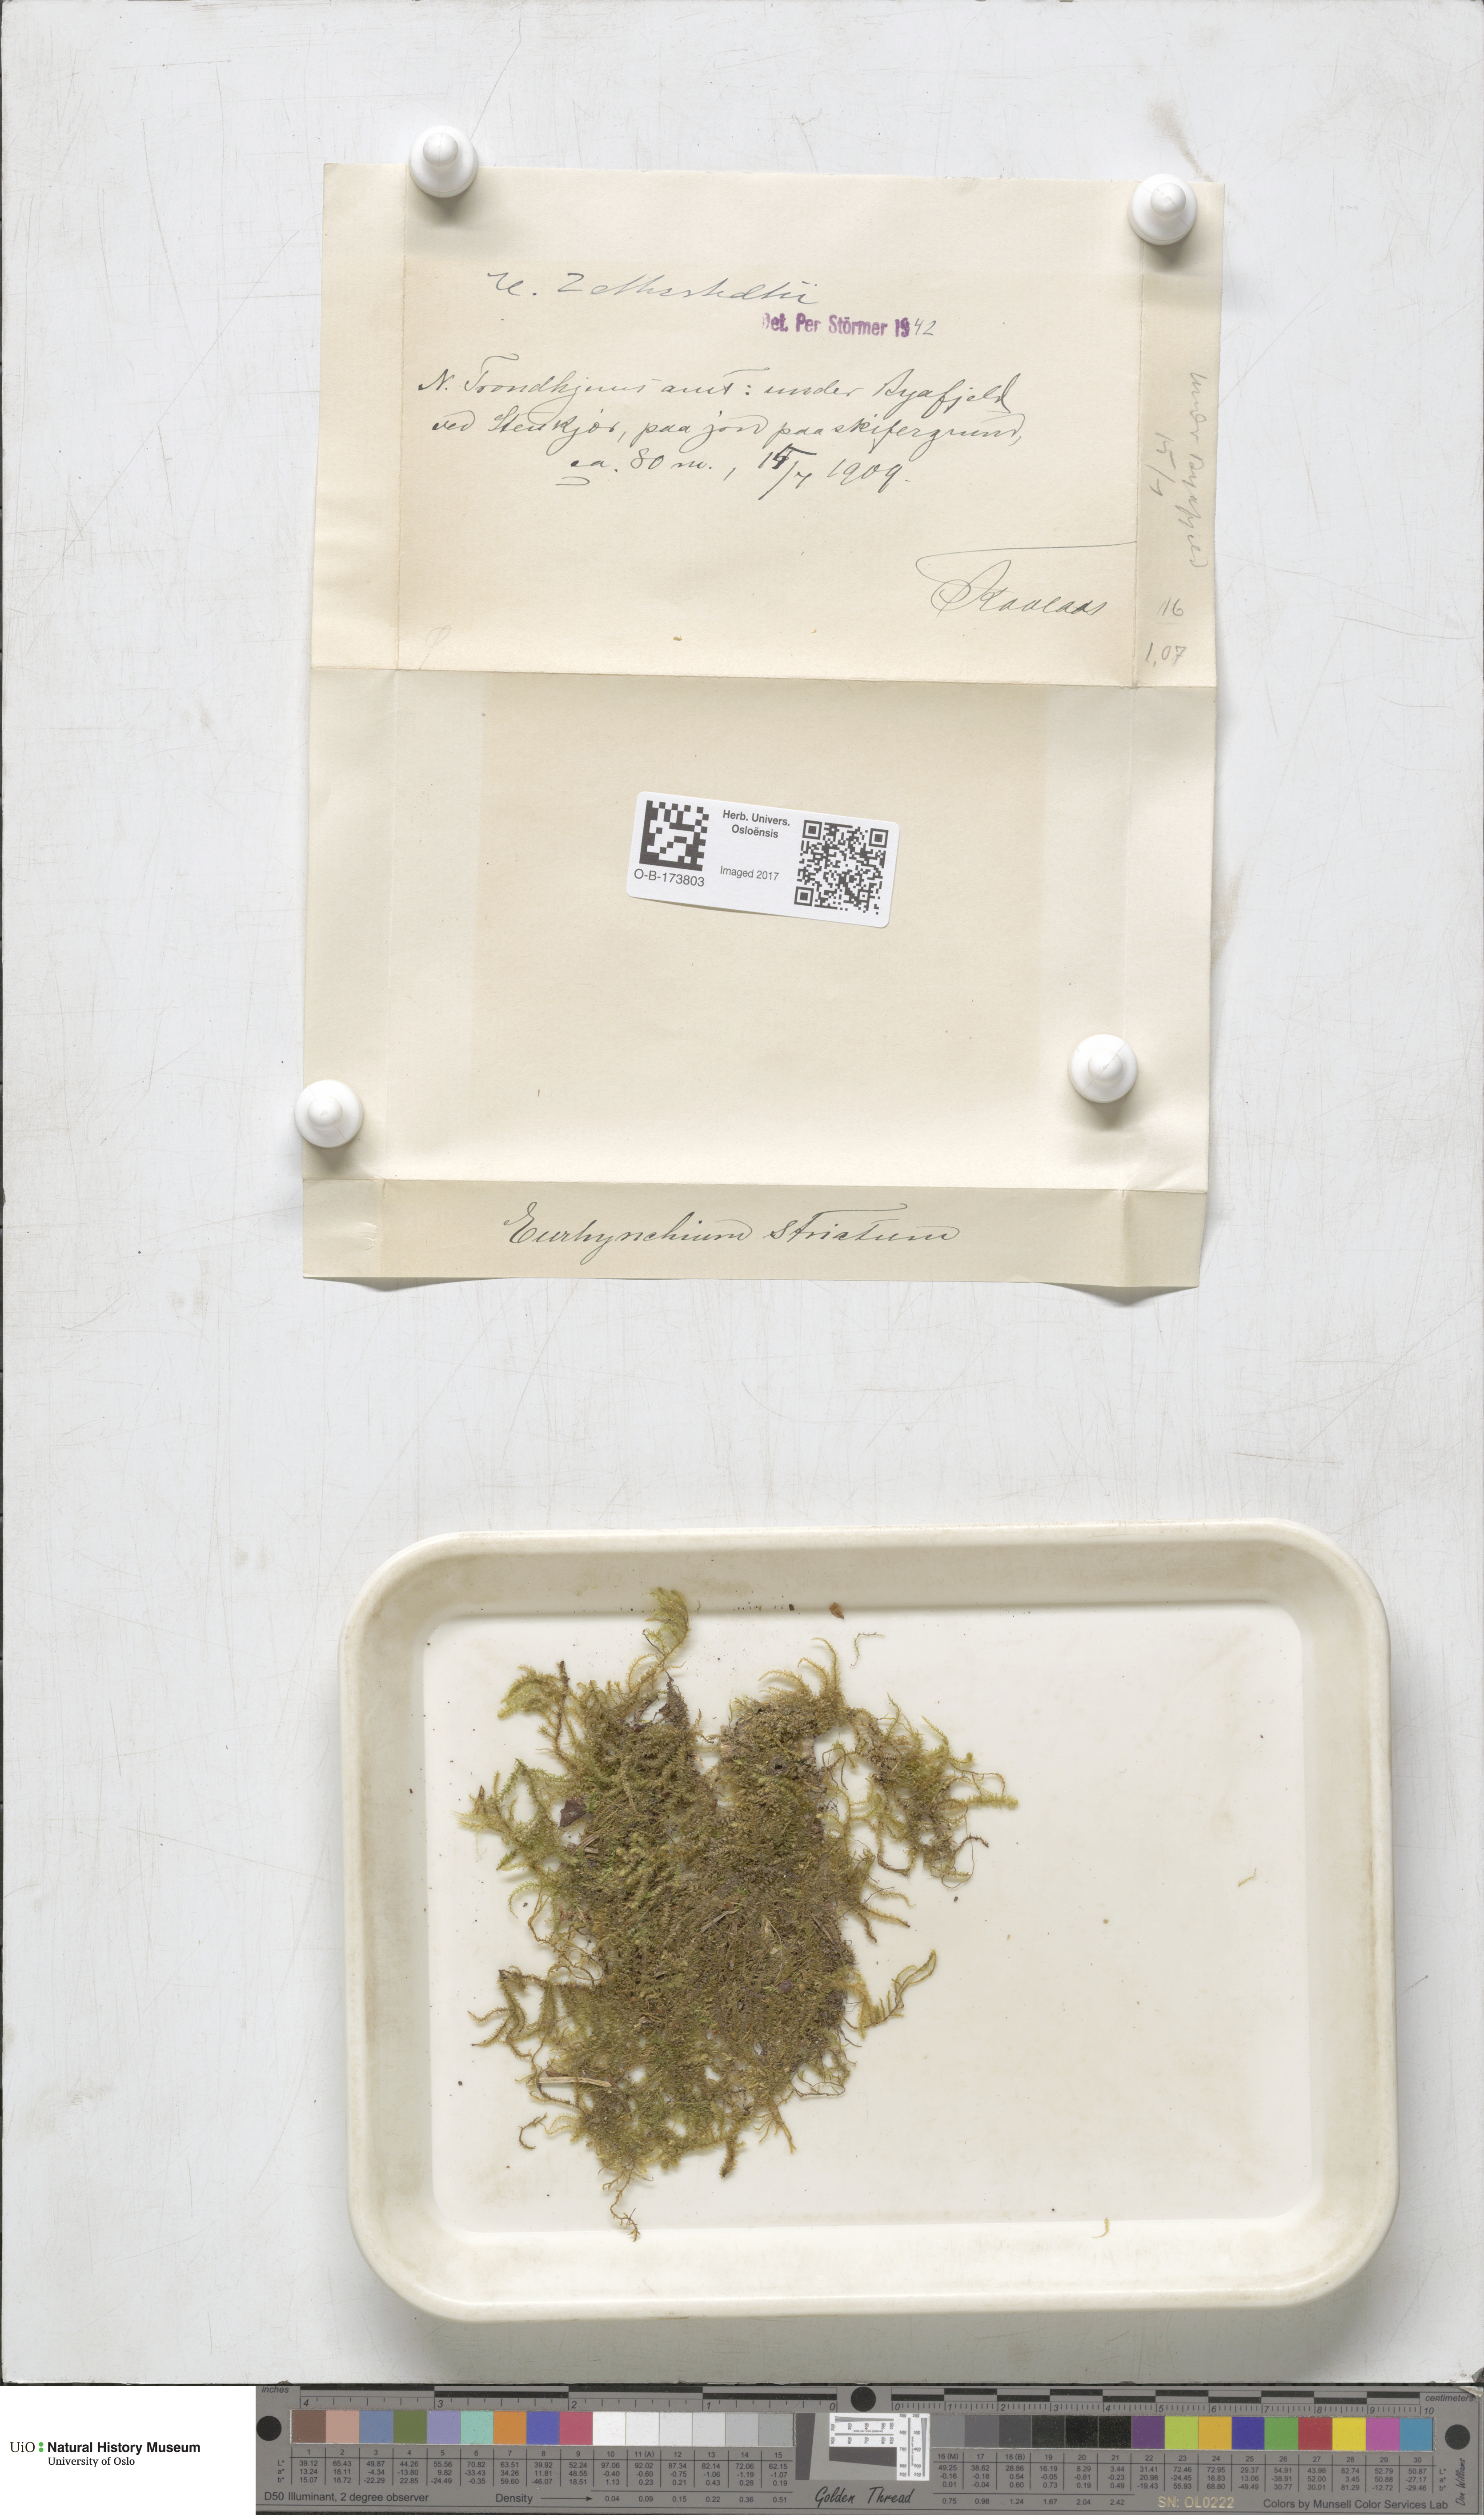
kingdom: Plantae
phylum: Bryophyta
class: Bryopsida
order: Hypnales
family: Brachytheciaceae
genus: Eurhynchium
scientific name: Eurhynchium angustirete
